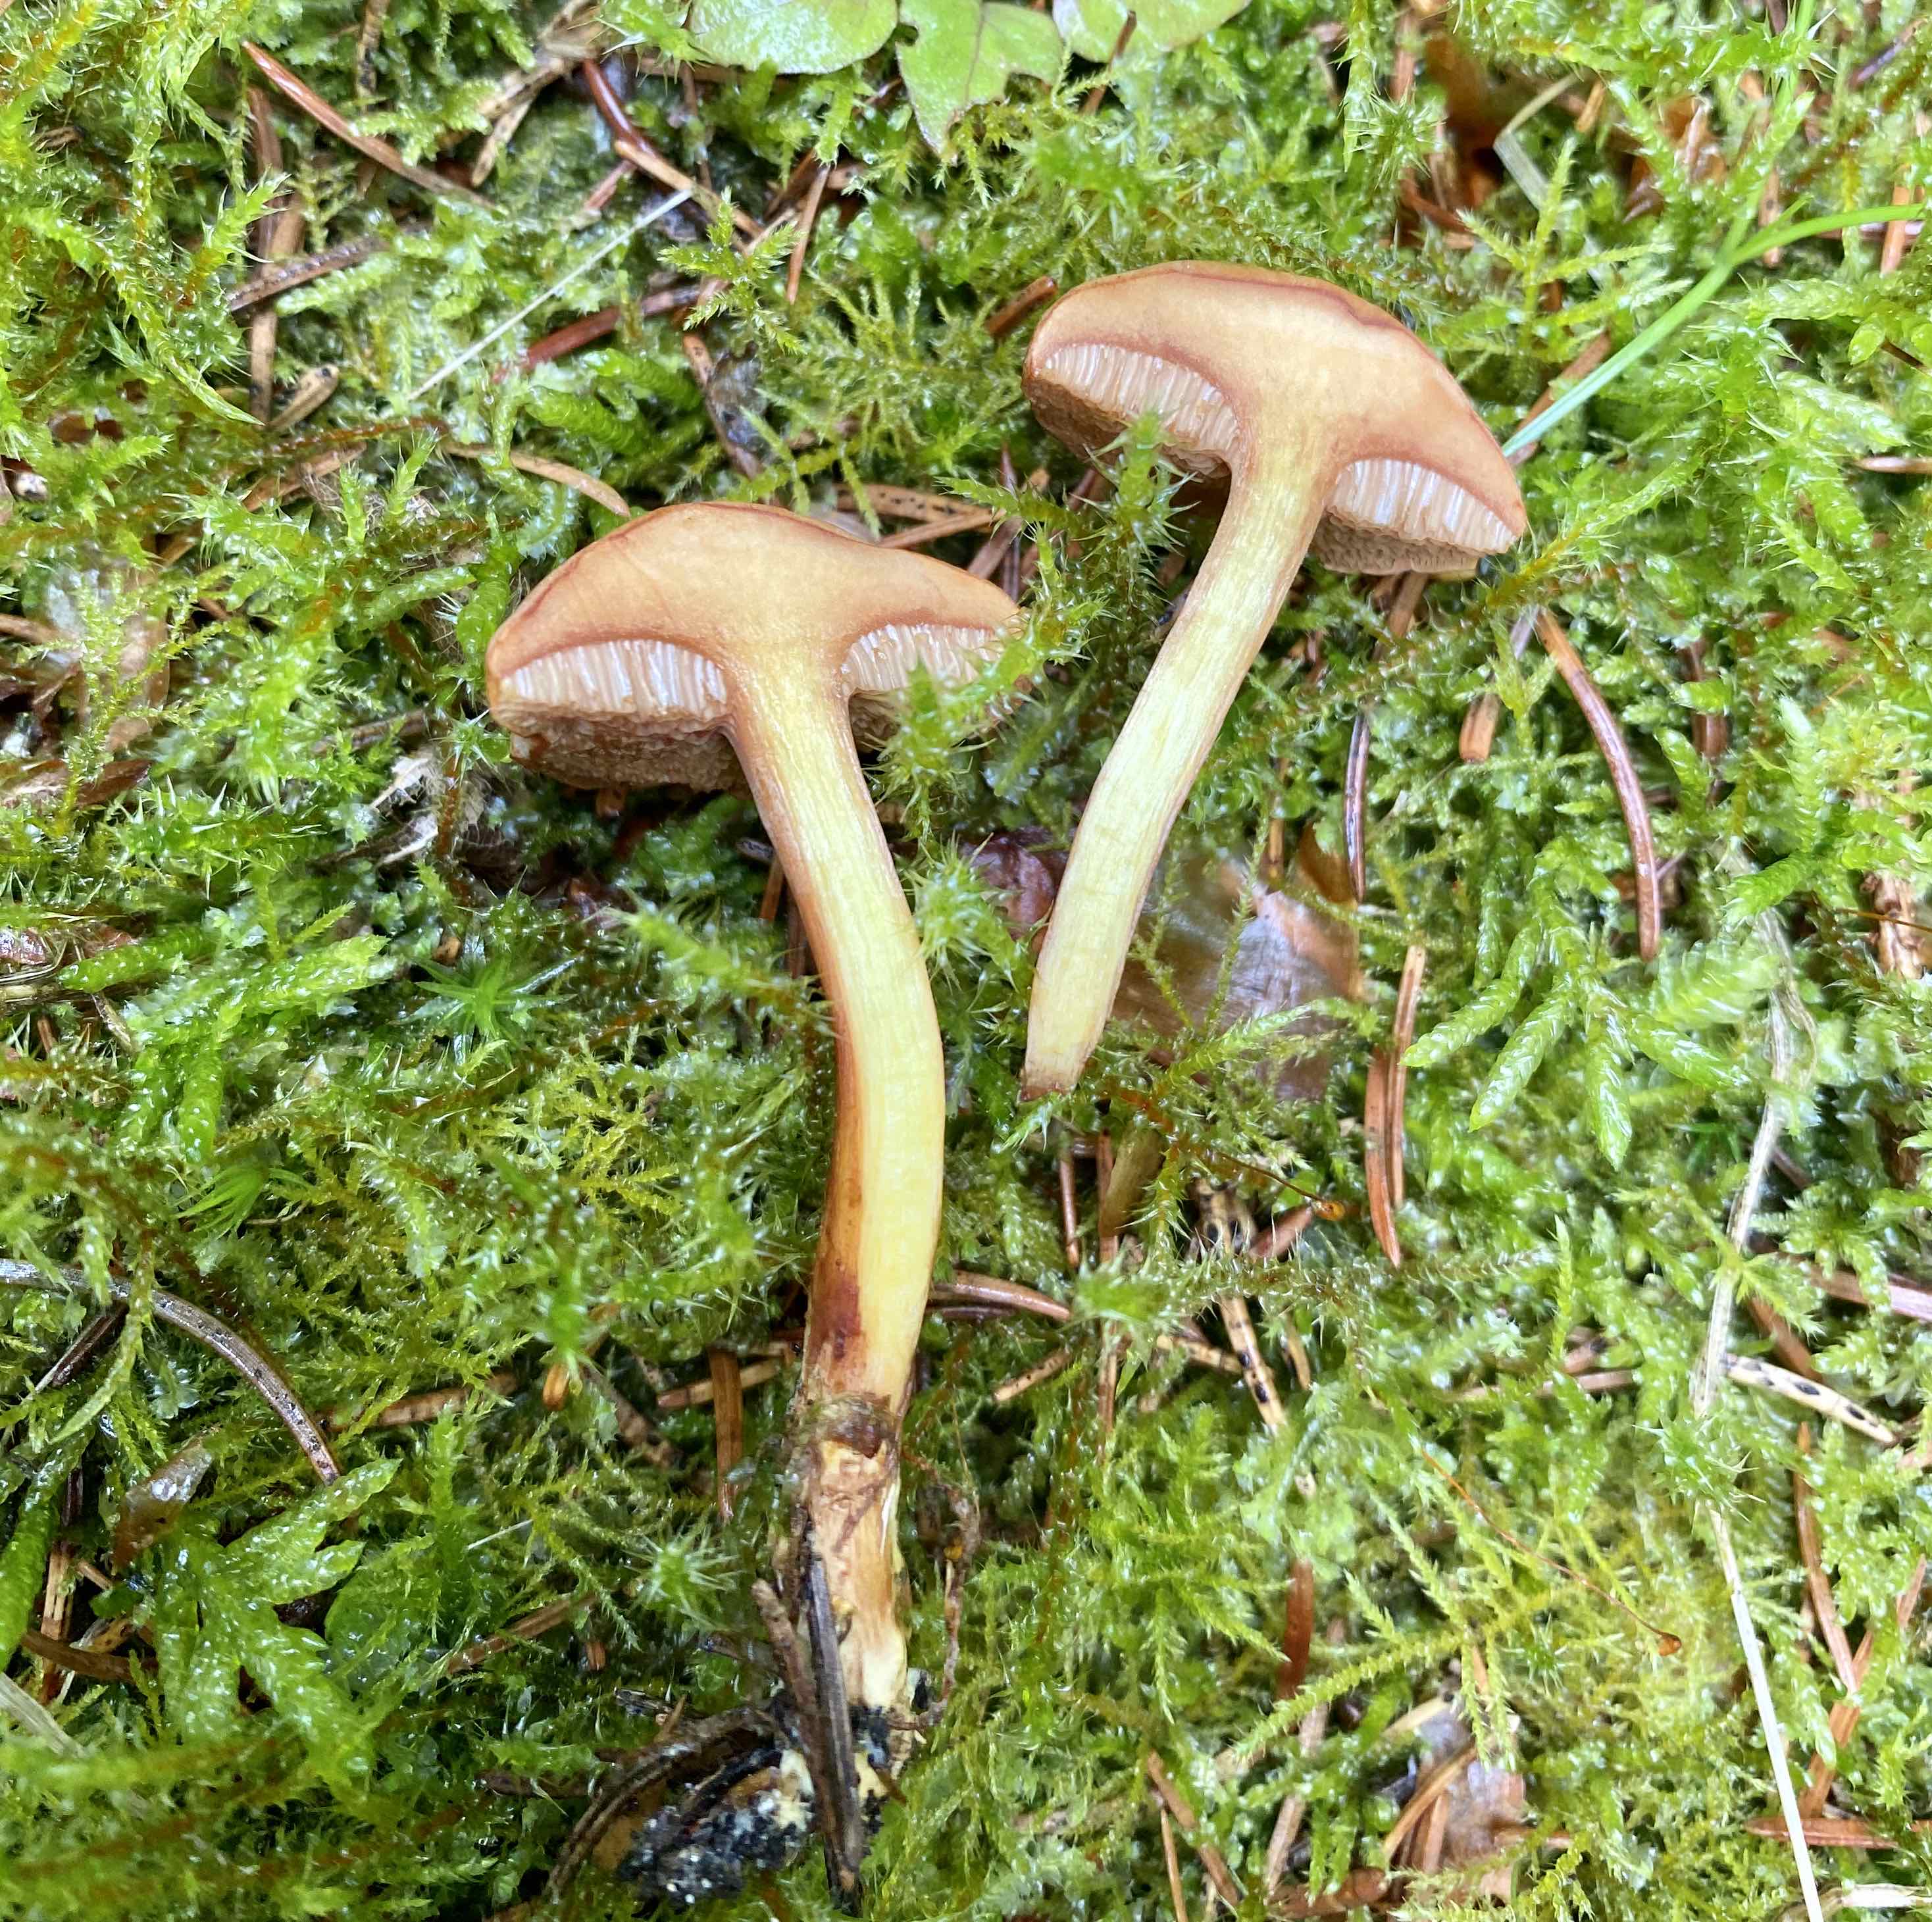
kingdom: Fungi
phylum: Basidiomycota
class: Agaricomycetes
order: Boletales
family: Boletaceae
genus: Chalciporus
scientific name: Chalciporus piperatus
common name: peberrørhat
